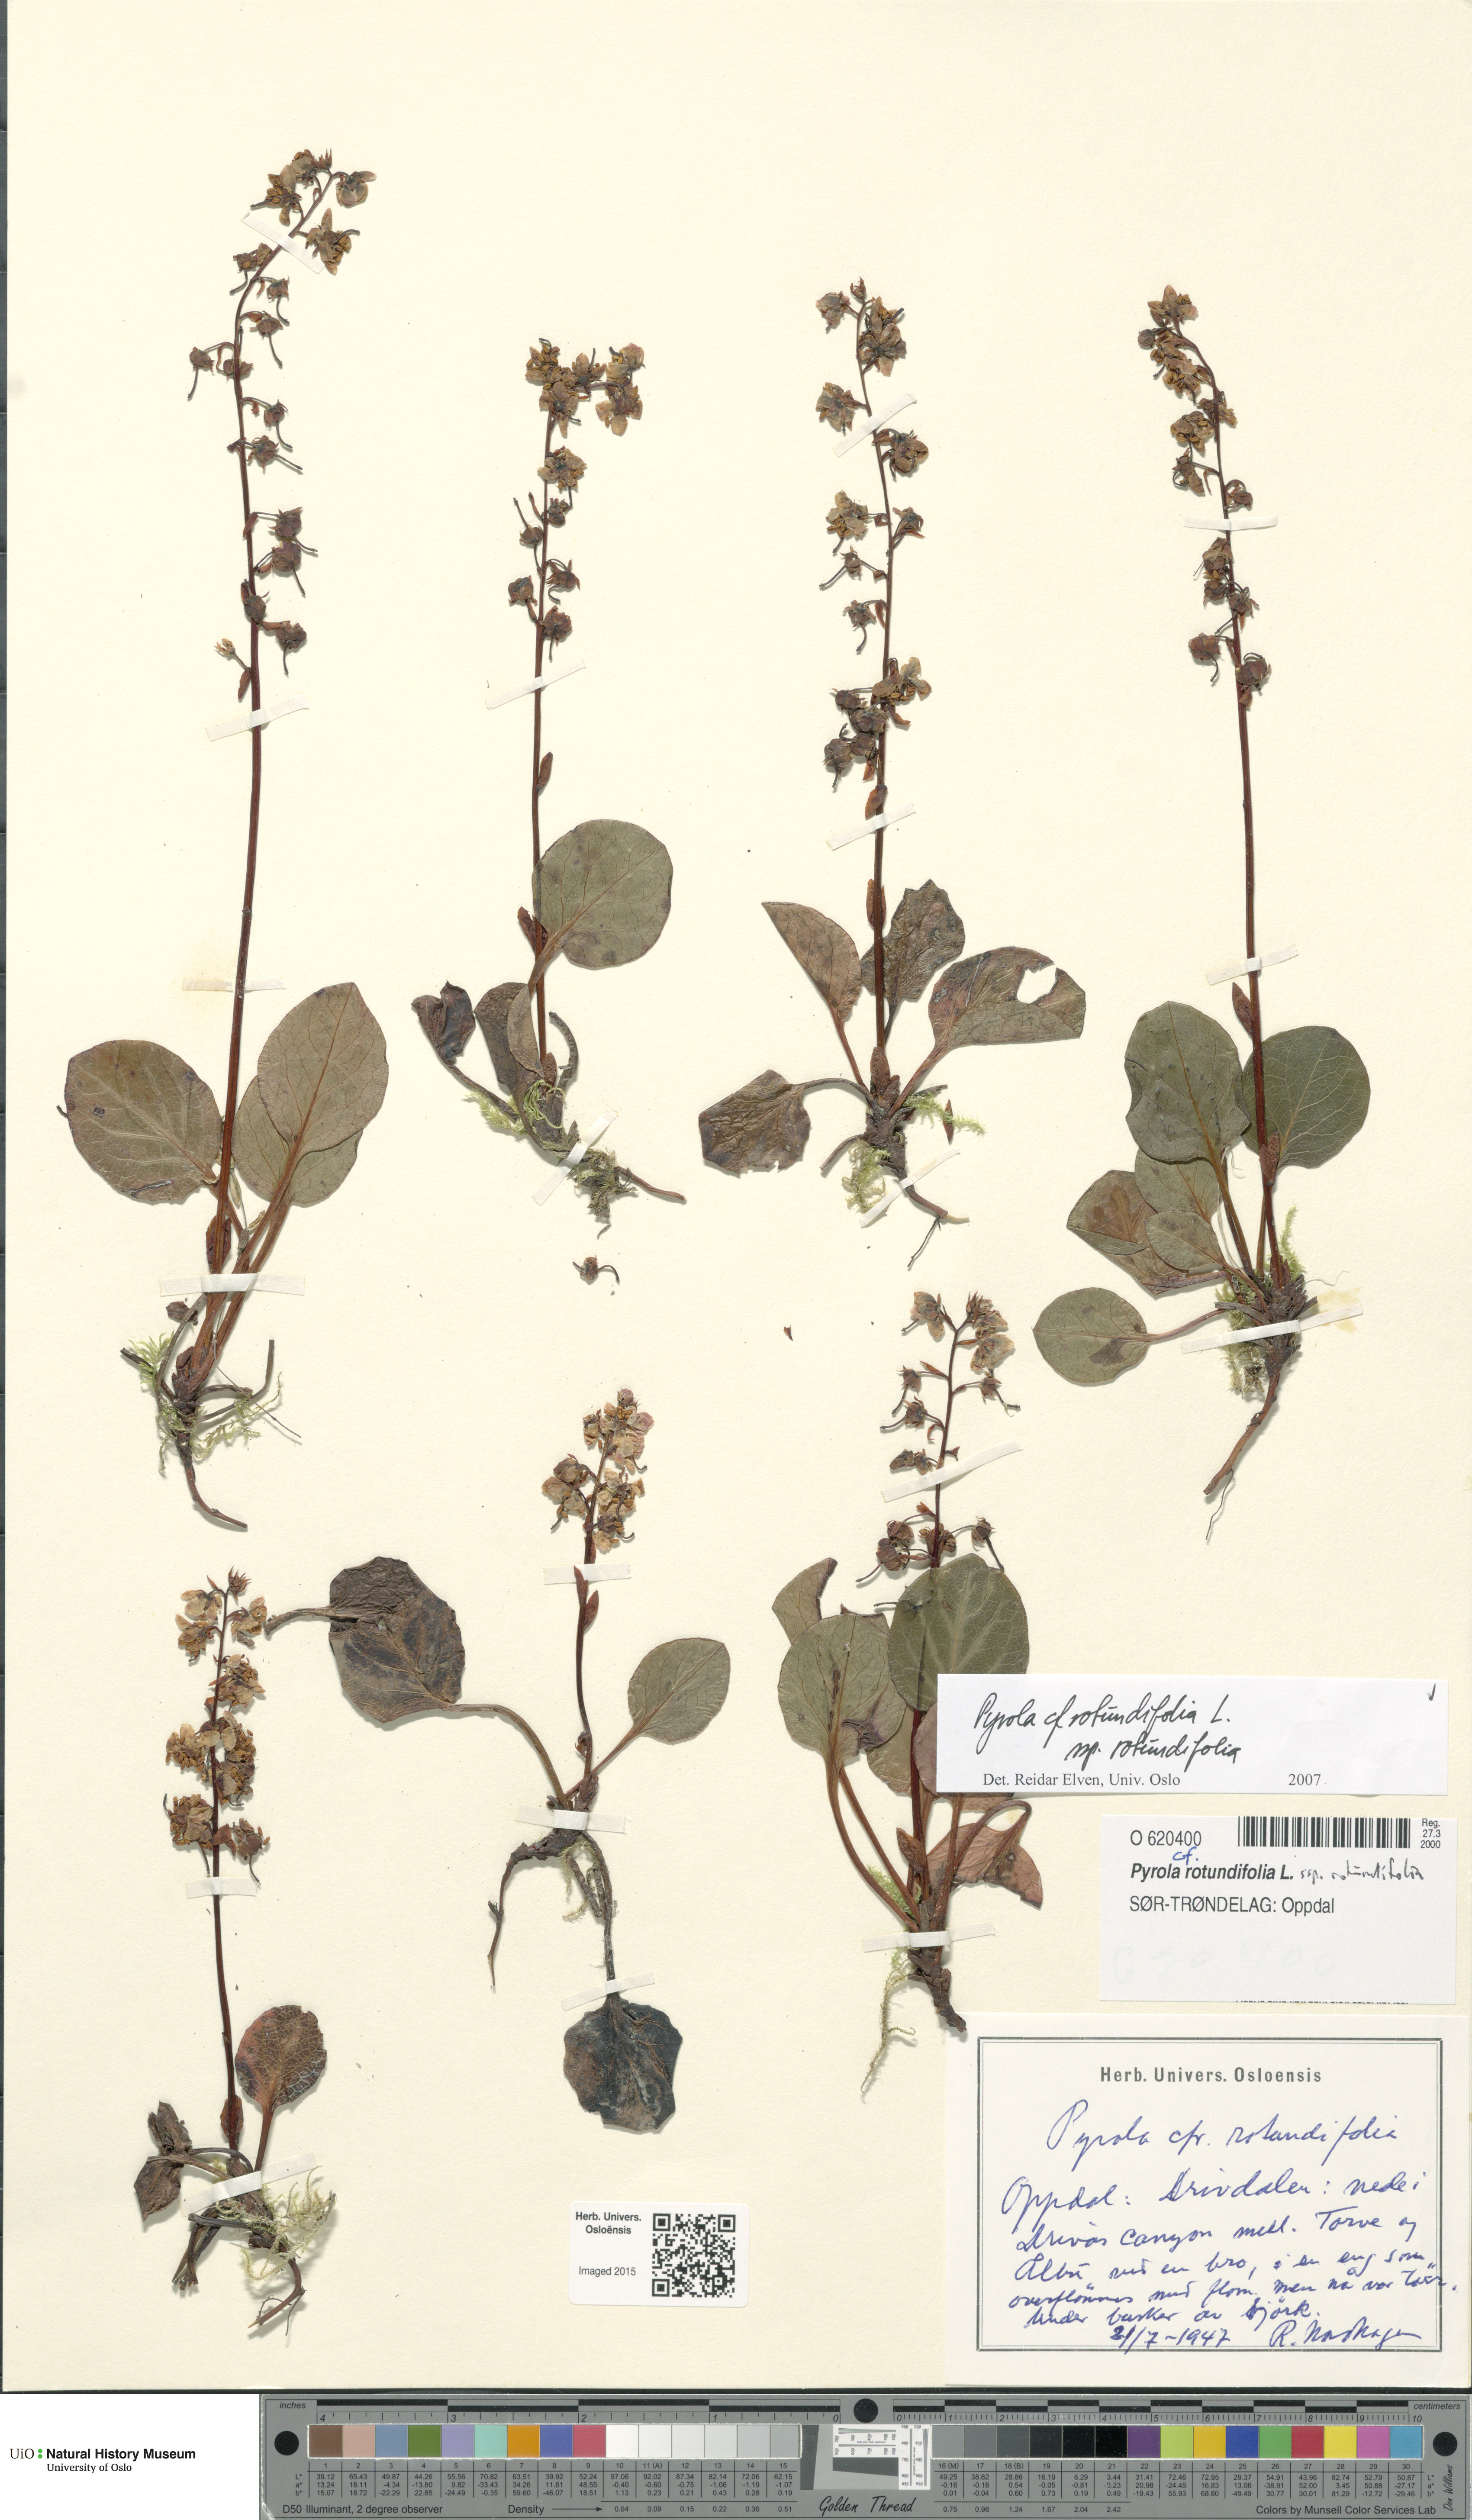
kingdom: Plantae
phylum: Tracheophyta
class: Magnoliopsida
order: Ericales
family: Ericaceae
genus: Pyrola
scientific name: Pyrola rotundifolia
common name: Round-leaved wintergreen
